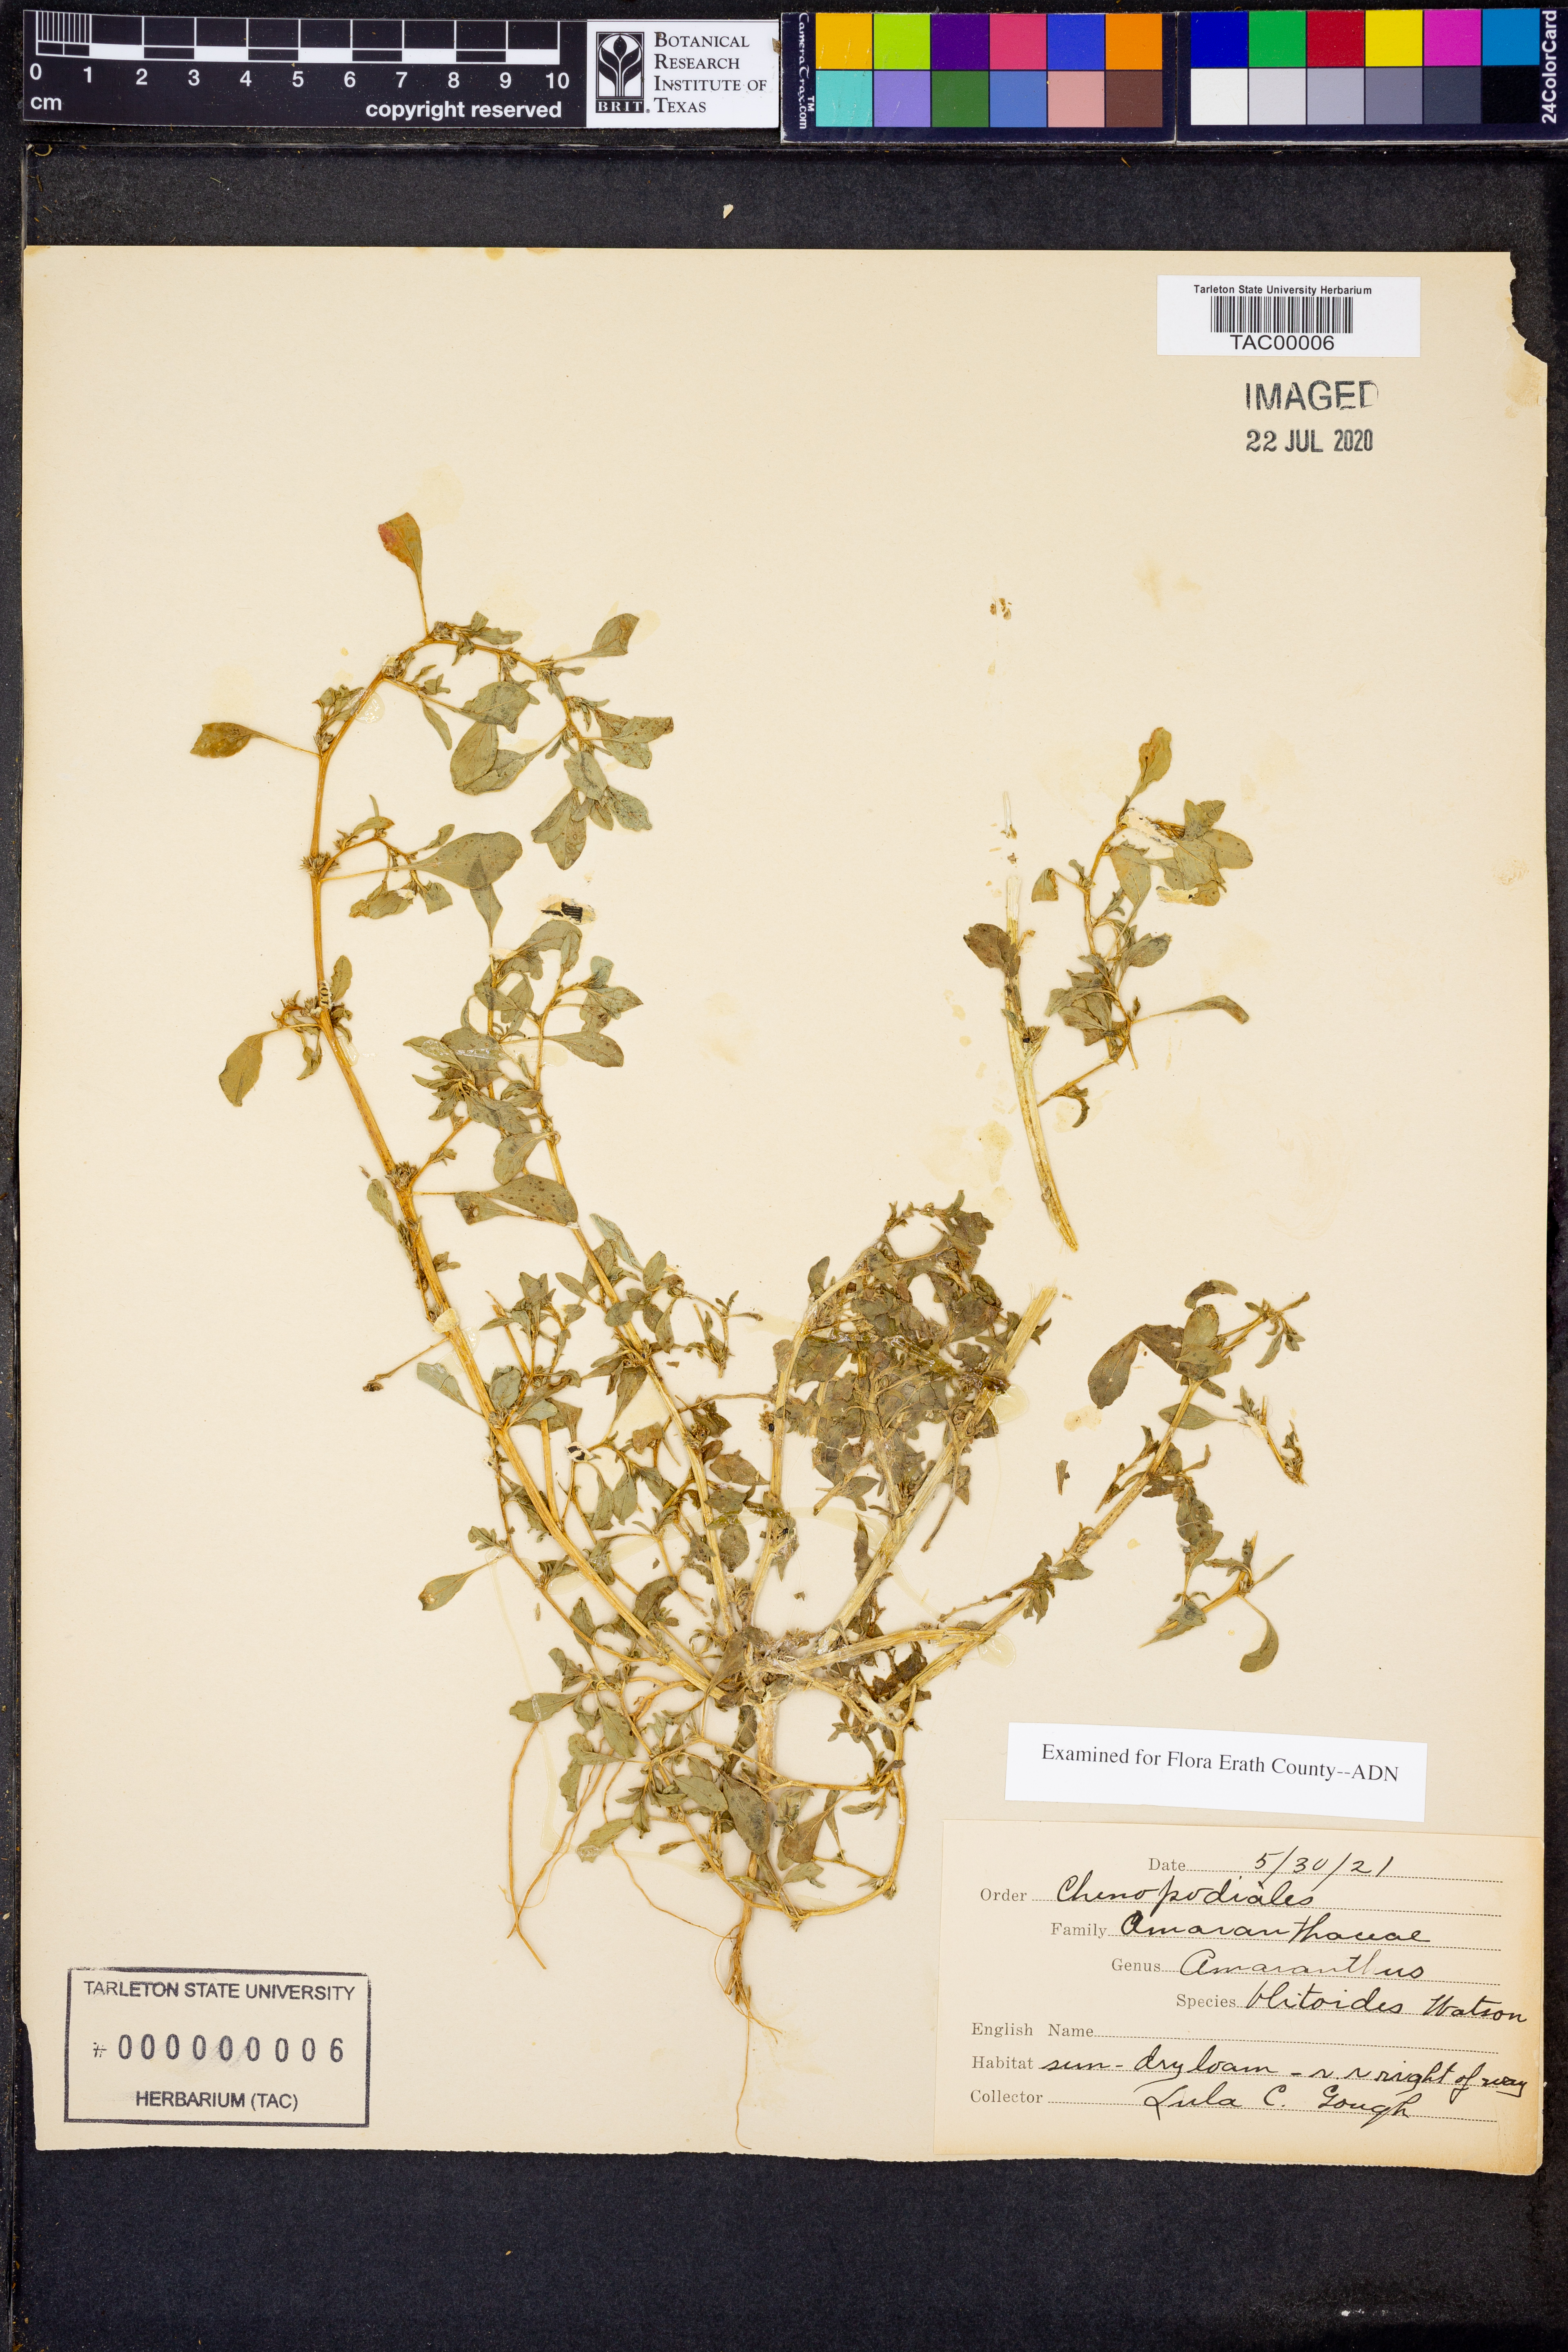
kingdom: Plantae
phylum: Tracheophyta
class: Magnoliopsida
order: Caryophyllales
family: Amaranthaceae
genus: Amaranthus
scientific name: Amaranthus blitoides
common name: Prostrate pigweed
